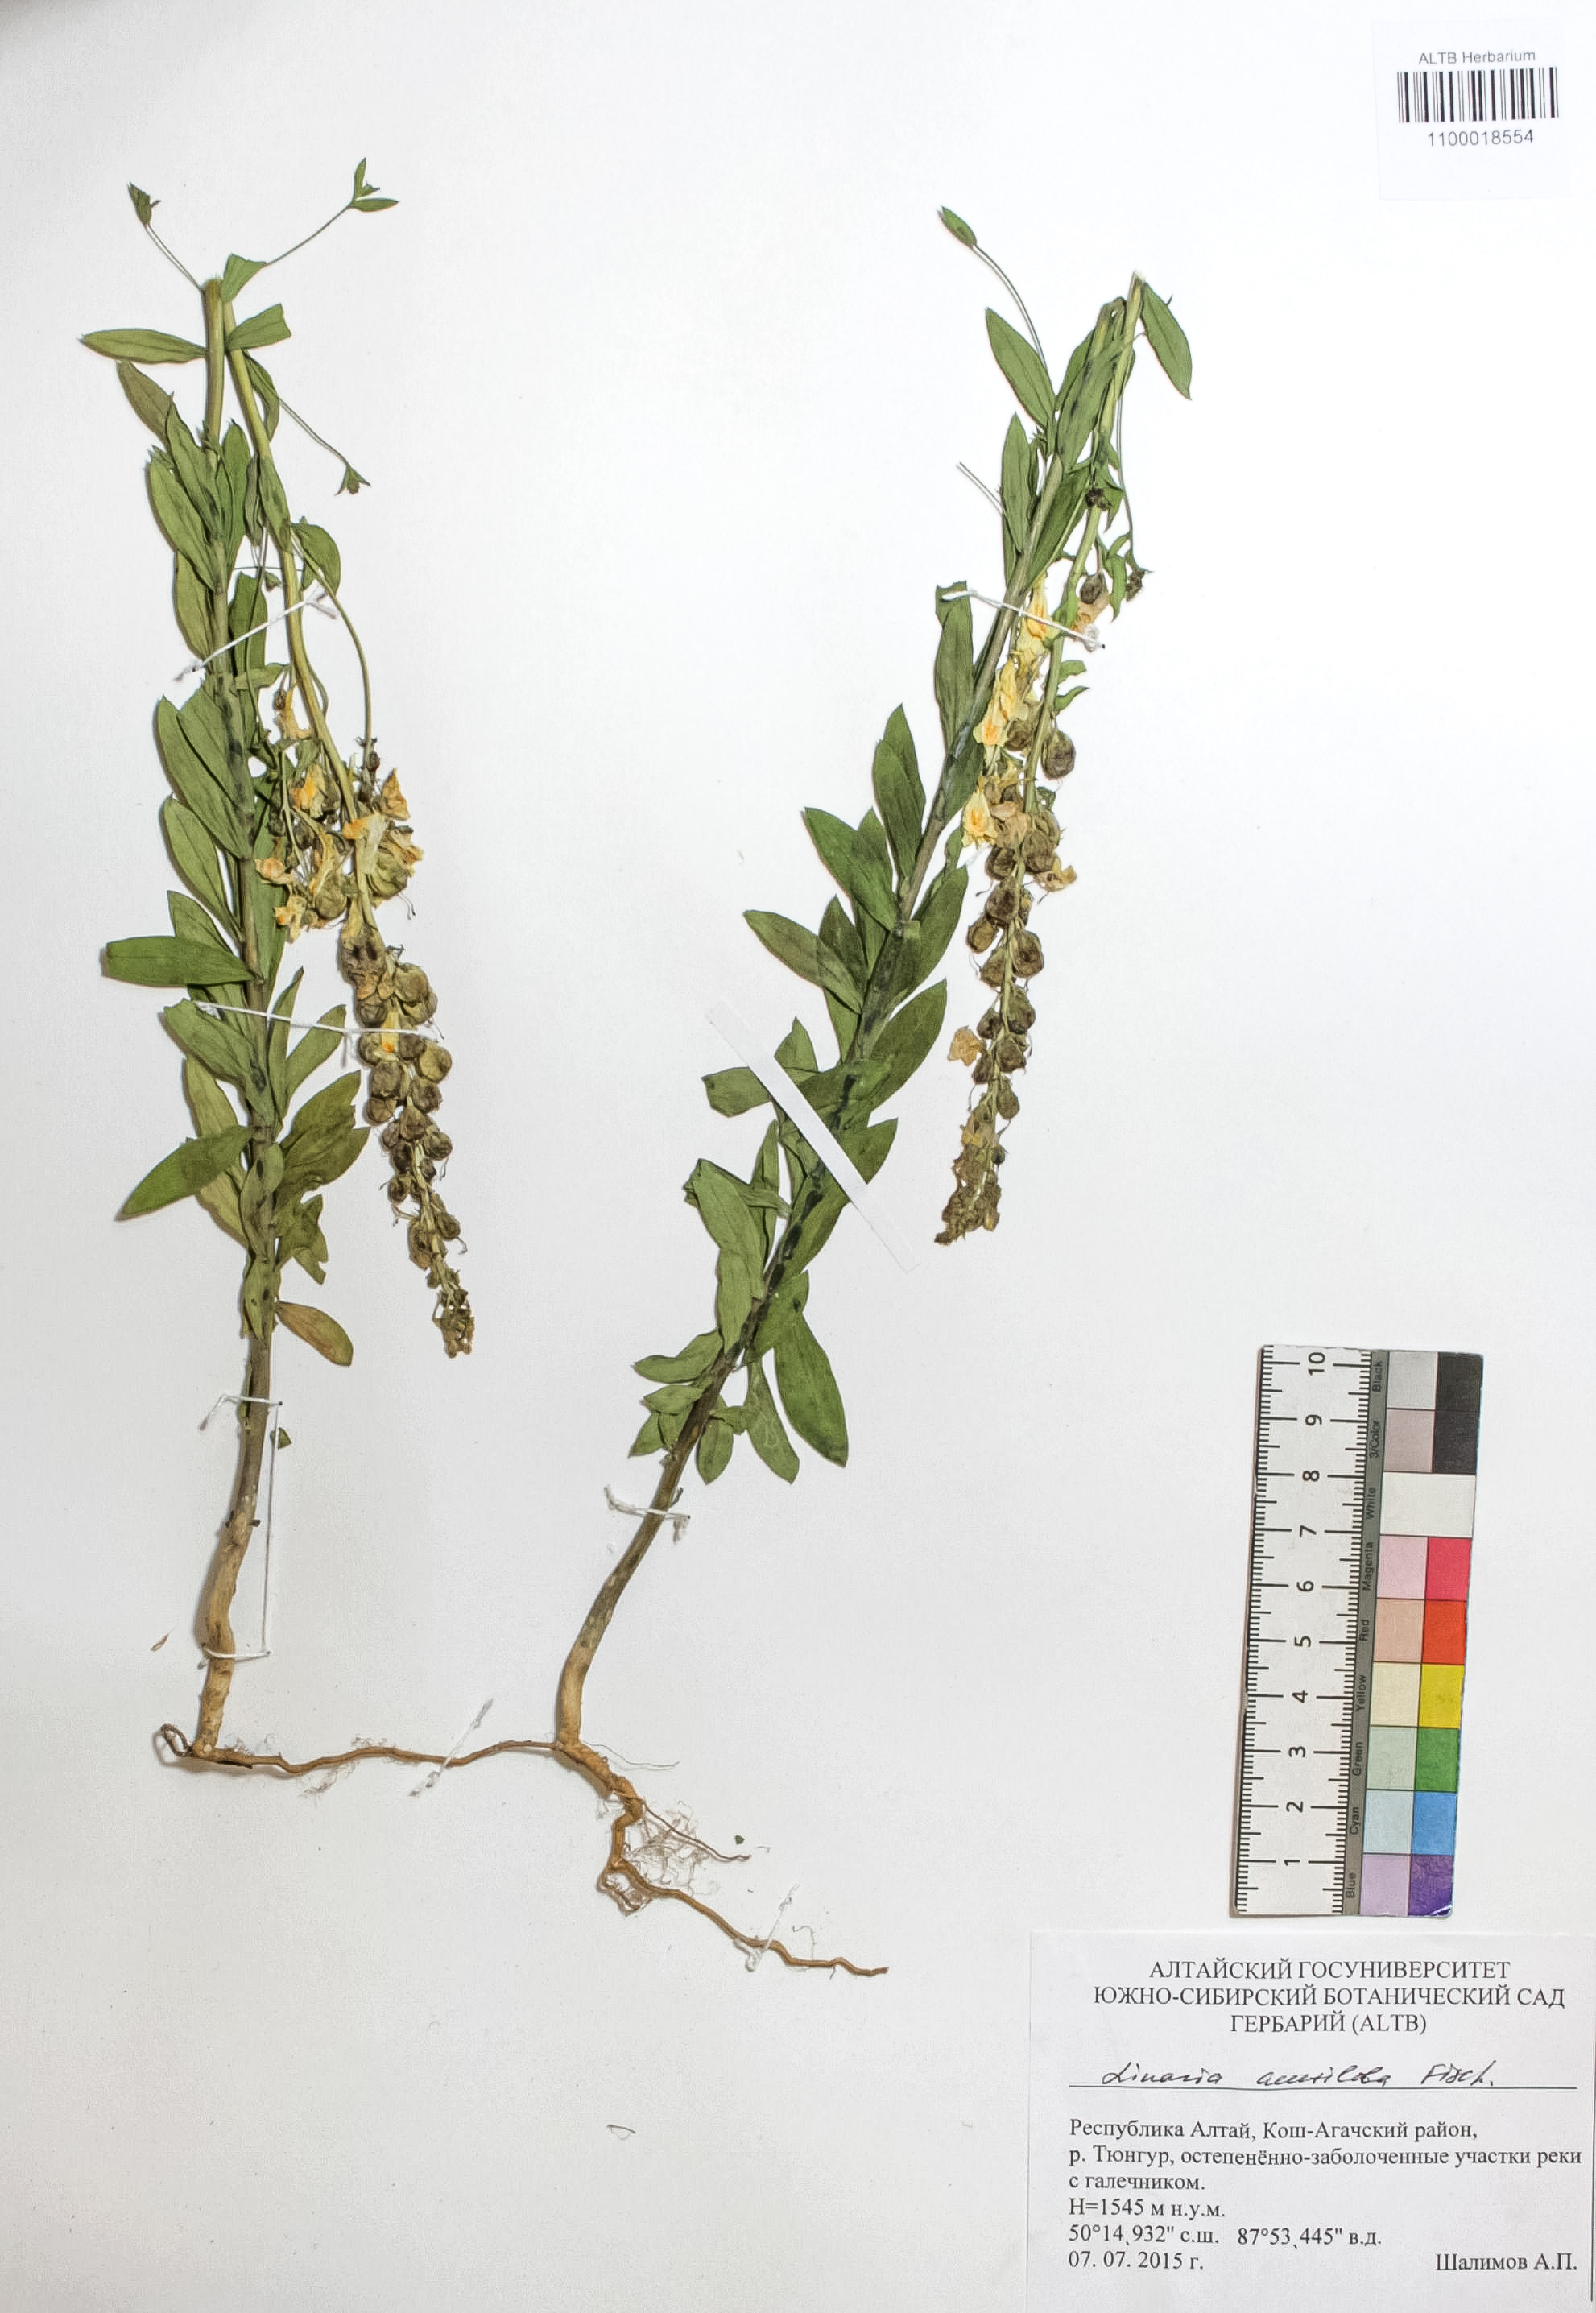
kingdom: Plantae
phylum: Tracheophyta
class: Magnoliopsida
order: Lamiales
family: Plantaginaceae
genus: Linaria
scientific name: Linaria acutiloba
